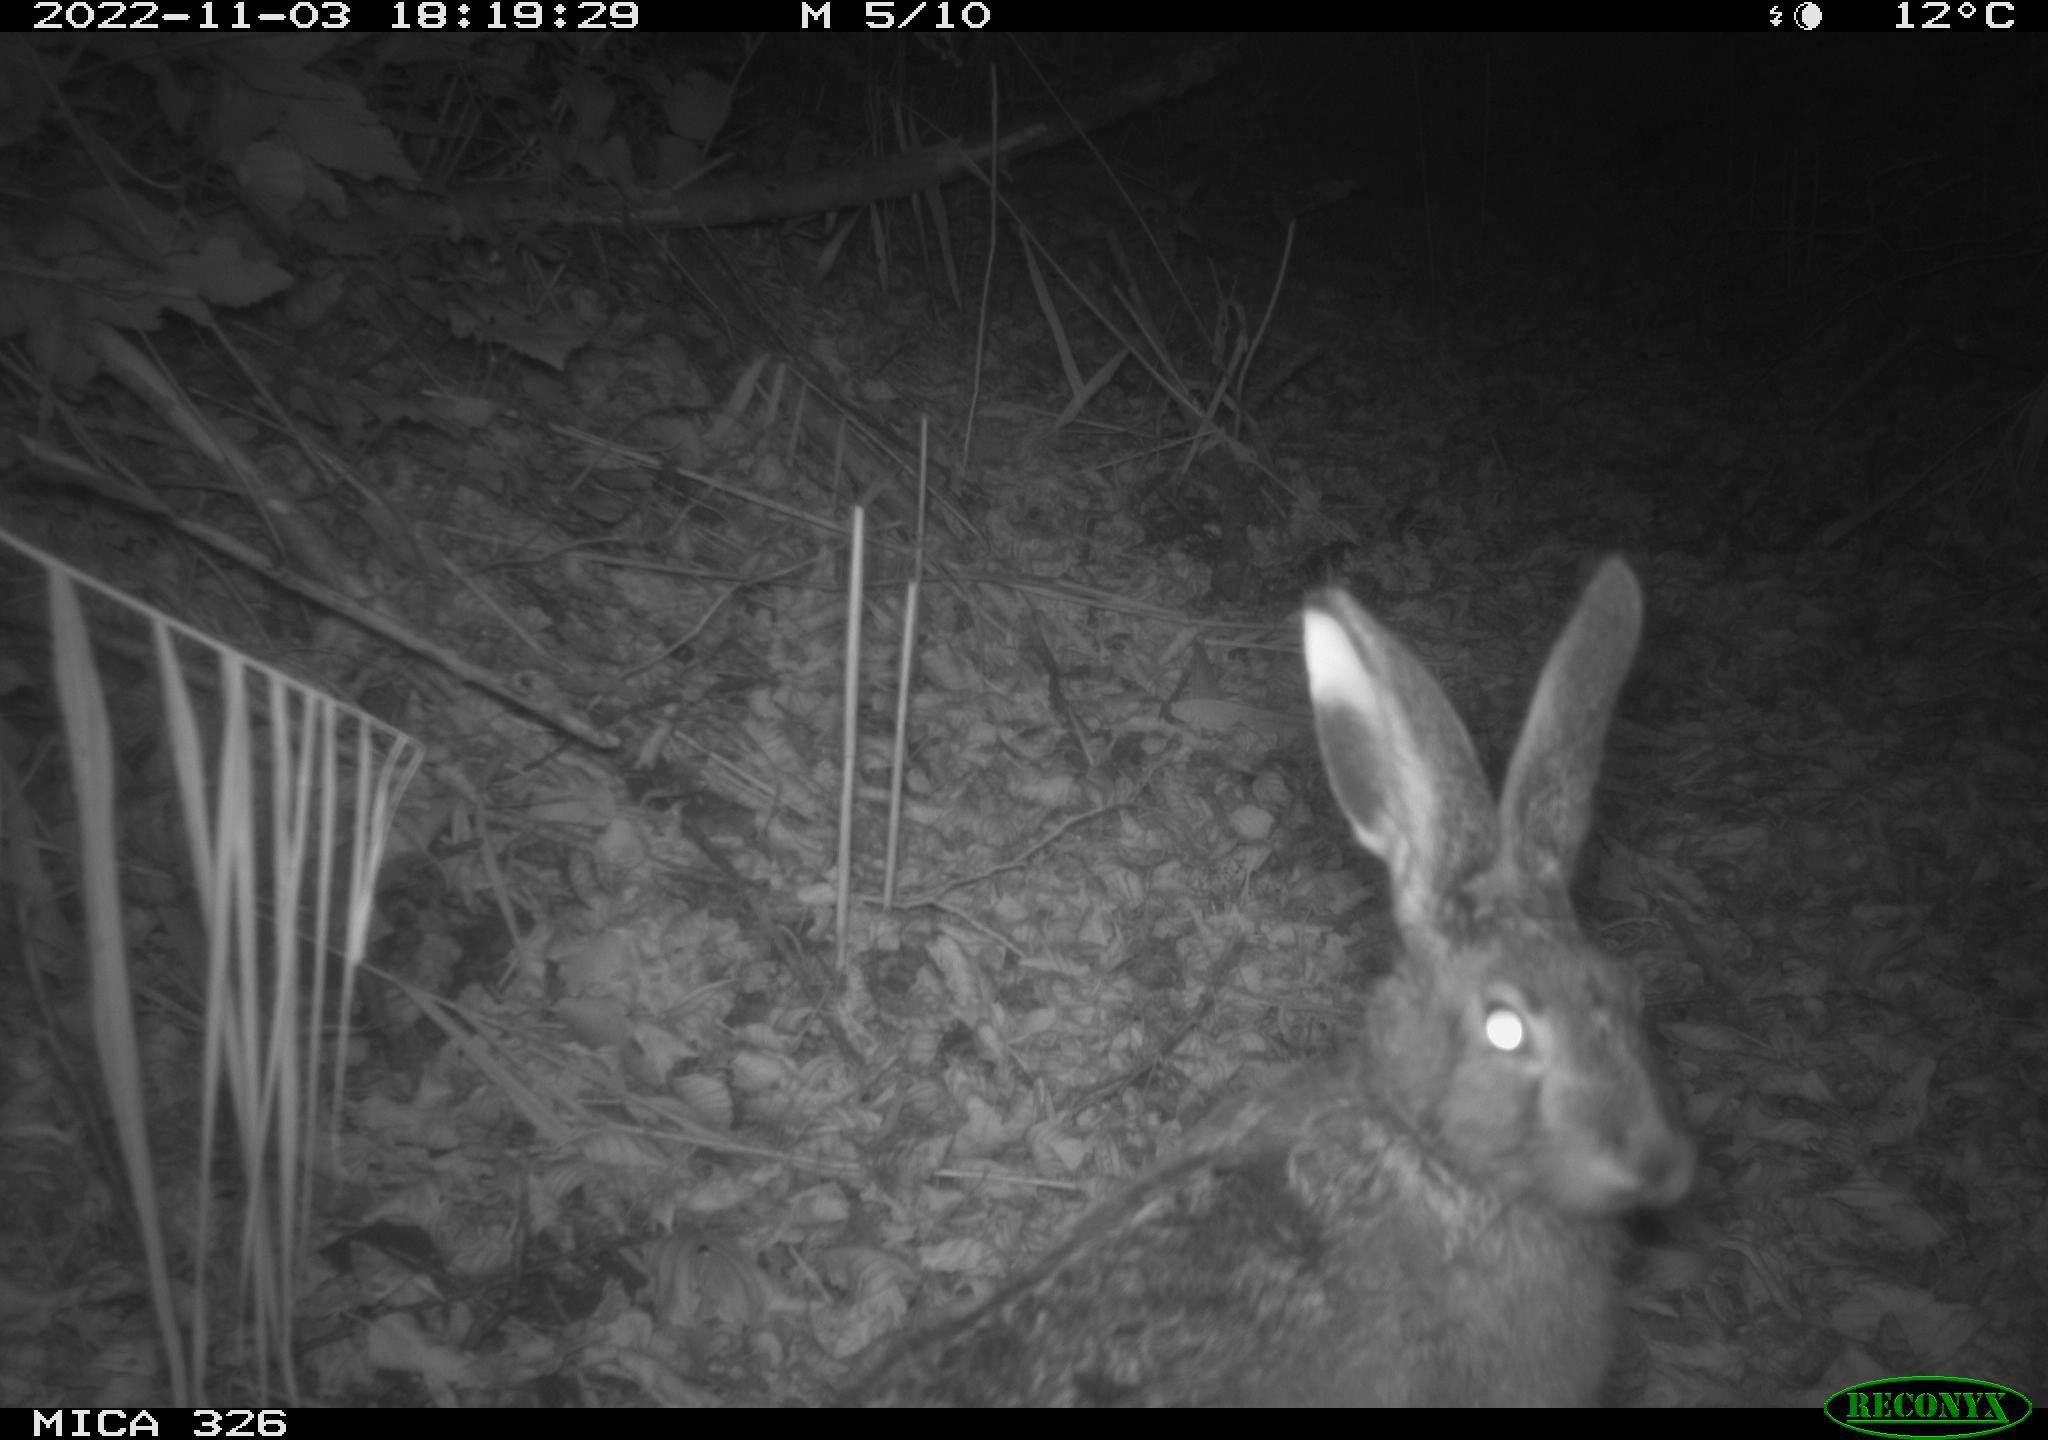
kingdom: Animalia
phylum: Chordata
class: Mammalia
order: Lagomorpha
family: Leporidae
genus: Lepus
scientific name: Lepus europaeus
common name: European hare
